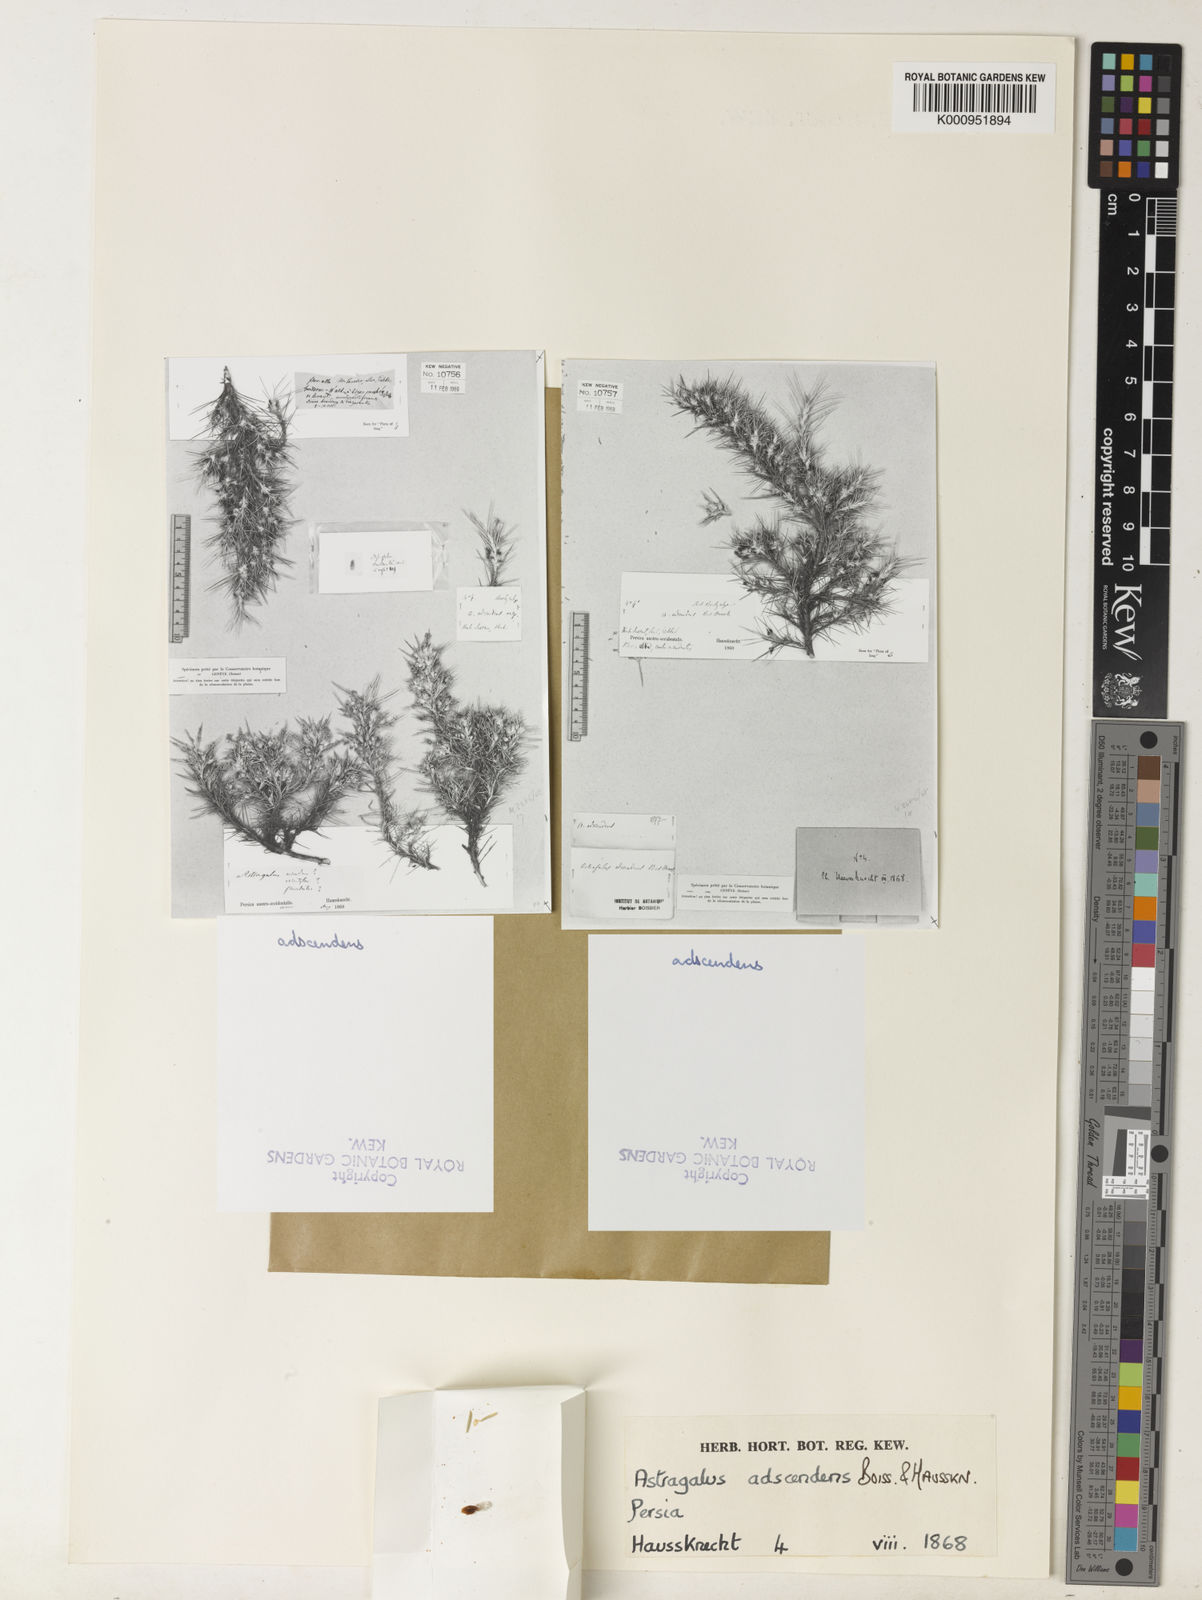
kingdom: Plantae
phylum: Tracheophyta
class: Magnoliopsida
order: Fabales
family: Fabaceae
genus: Astragalus
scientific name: Astragalus
